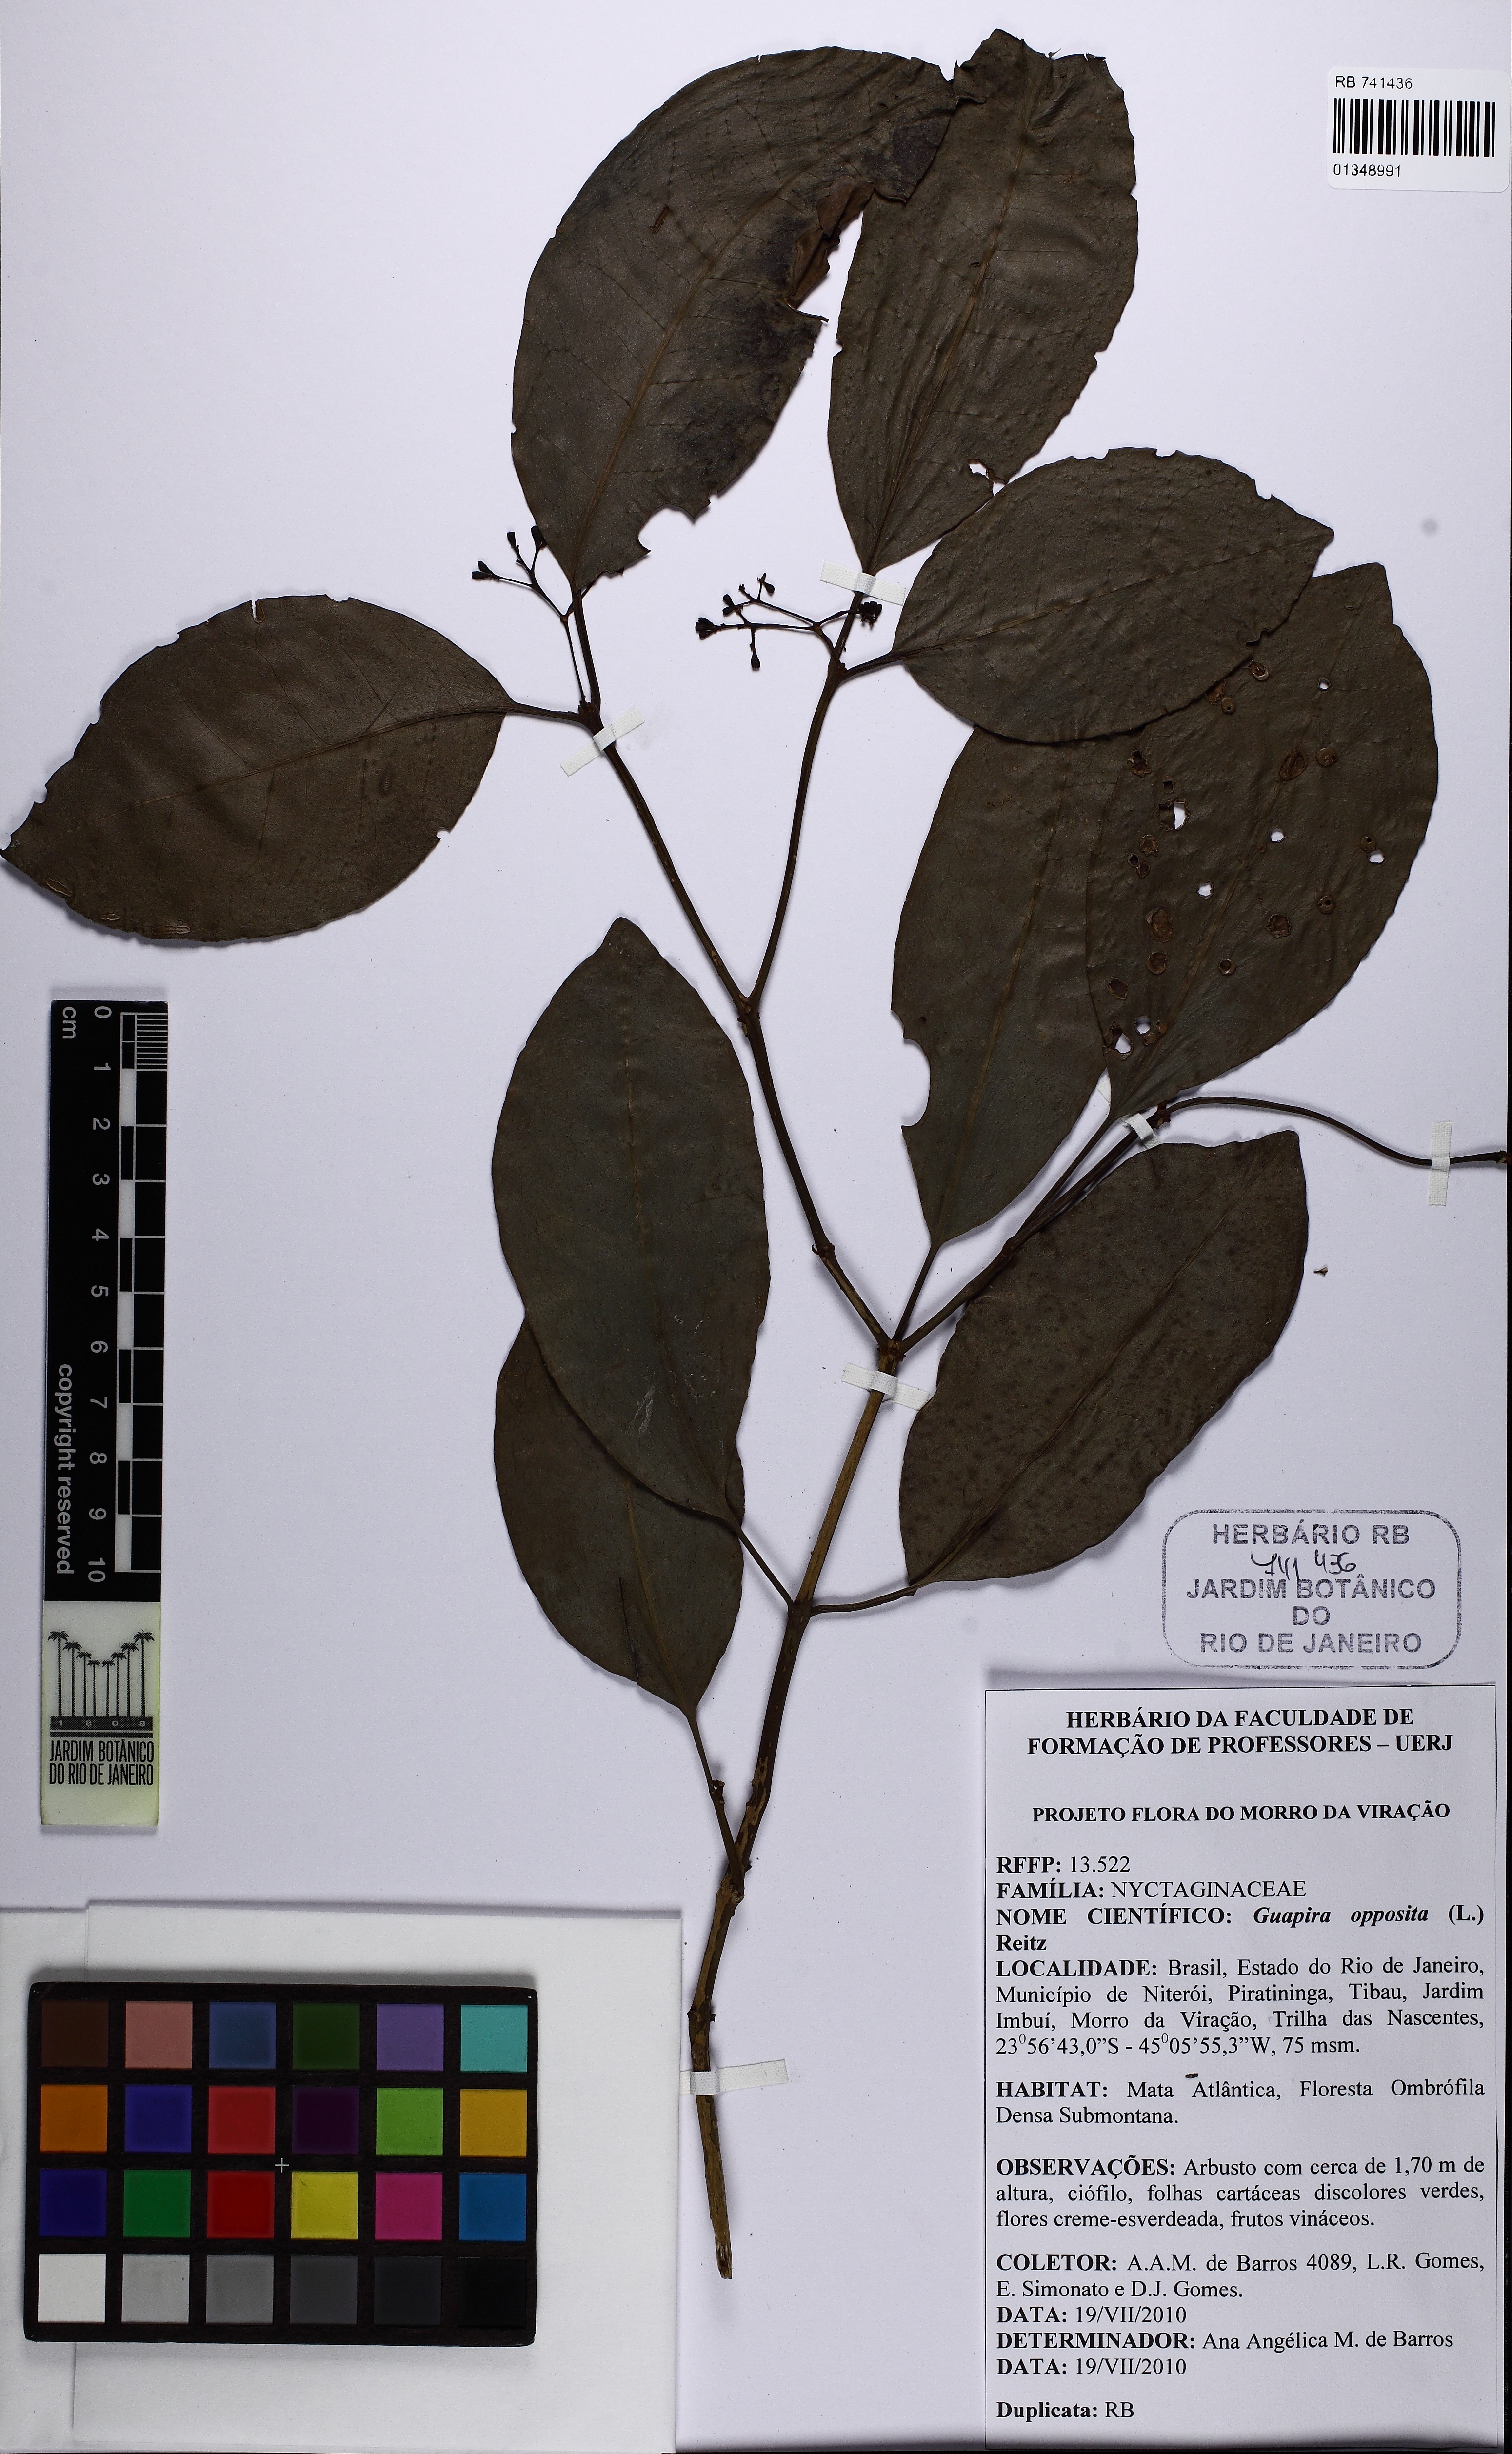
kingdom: Plantae
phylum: Tracheophyta
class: Magnoliopsida
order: Caryophyllales
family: Nyctaginaceae
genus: Guapira
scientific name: Guapira opposita
